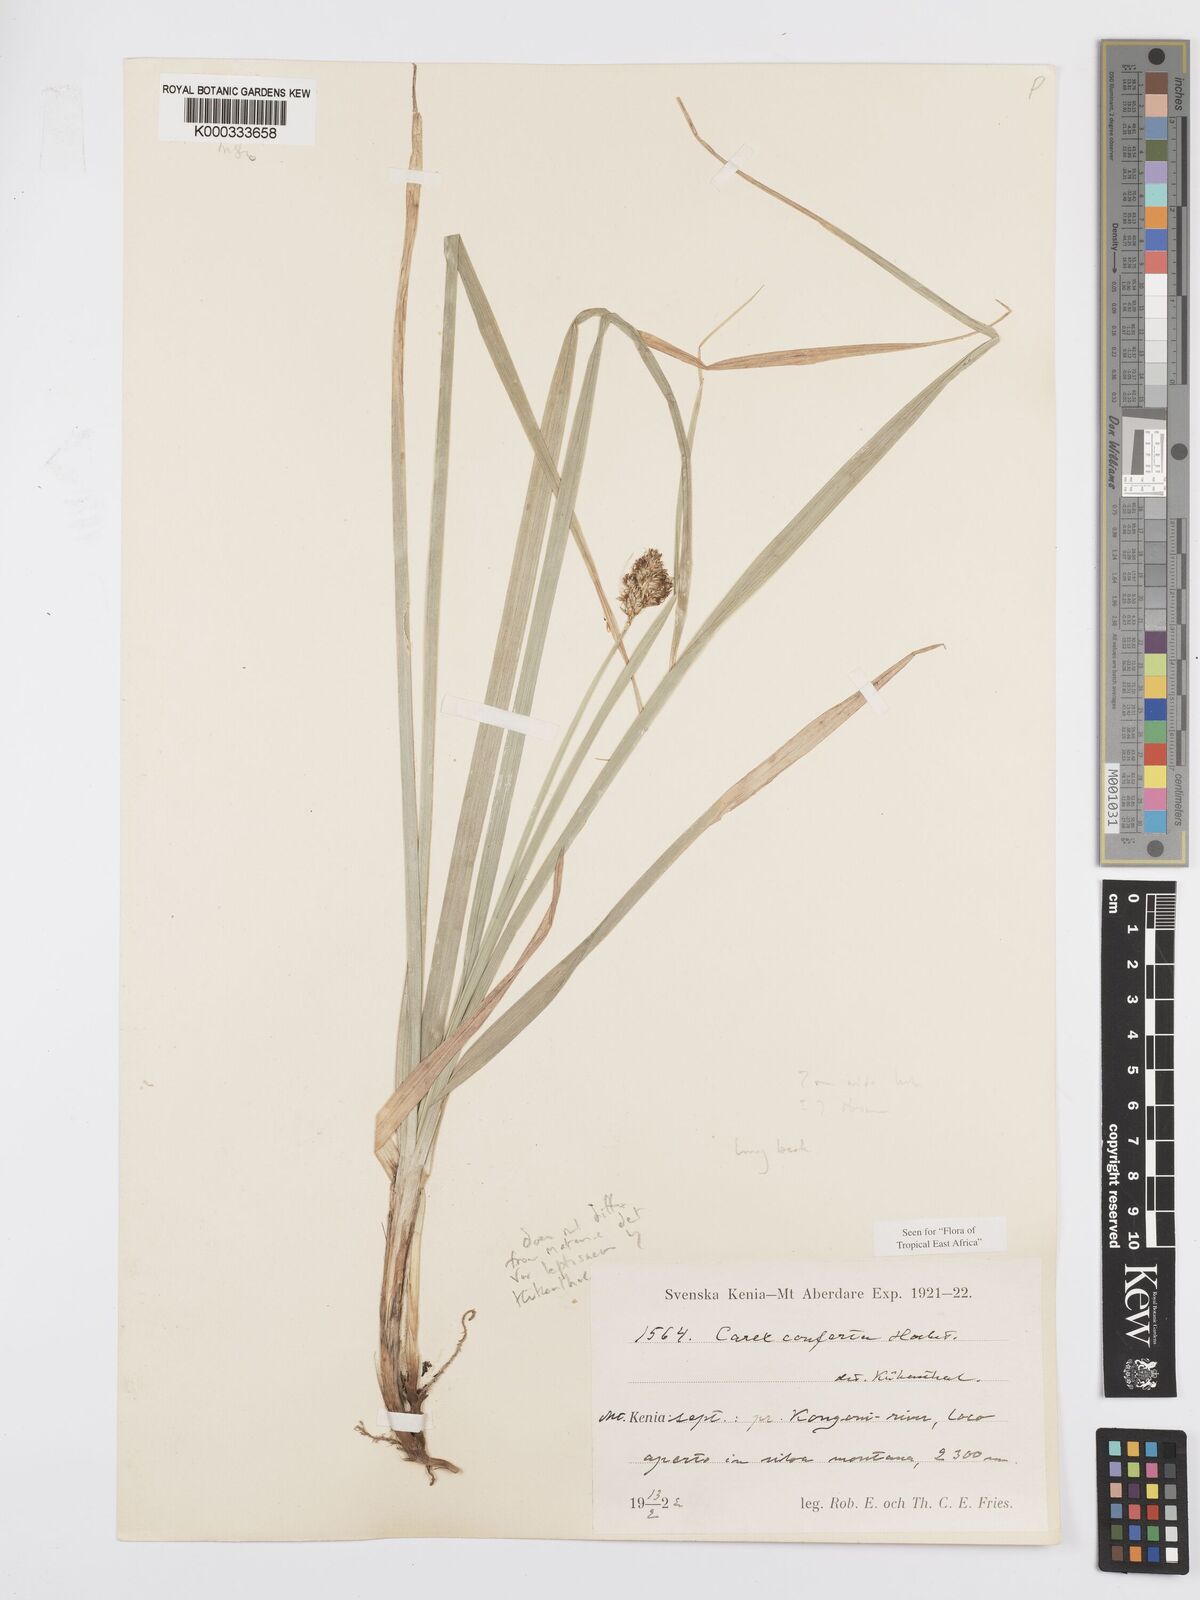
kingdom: Plantae
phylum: Tracheophyta
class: Liliopsida
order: Poales
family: Cyperaceae
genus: Carex
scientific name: Carex conferta
